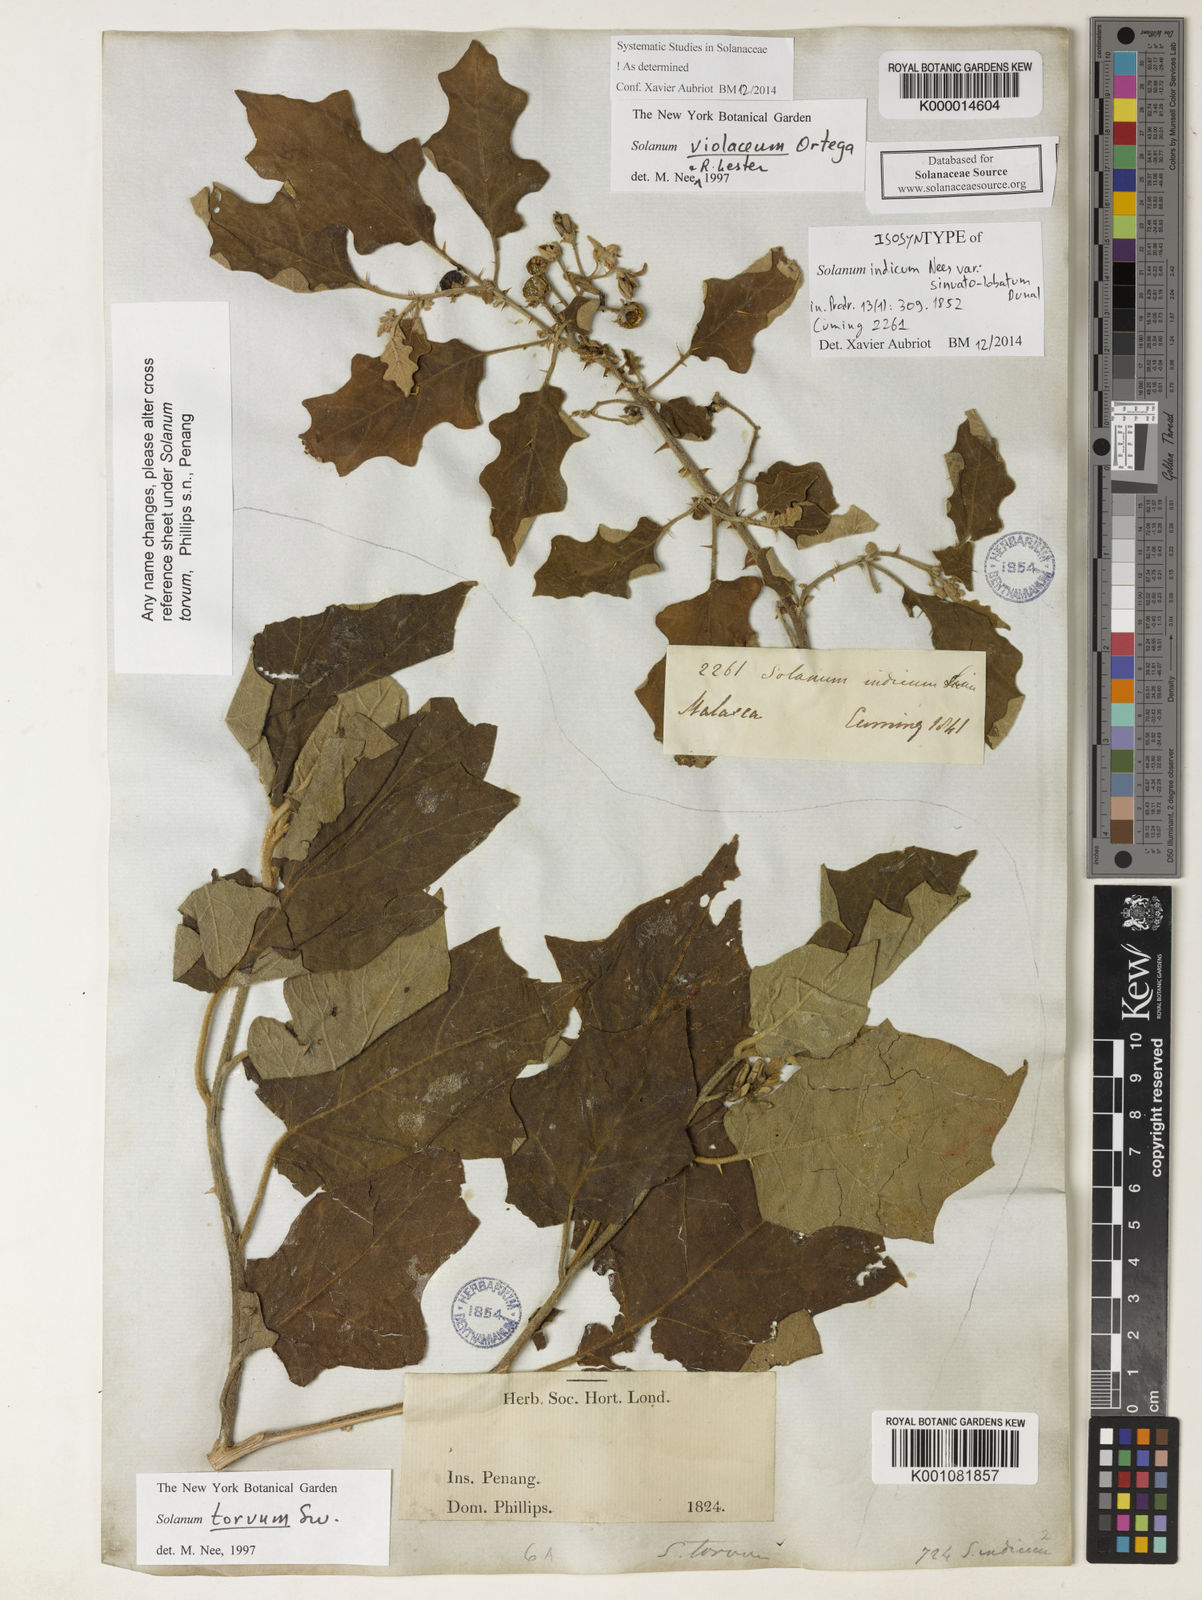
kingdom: Plantae
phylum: Tracheophyta
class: Magnoliopsida
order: Solanales
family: Solanaceae
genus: Solanum
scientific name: Solanum violaceum
